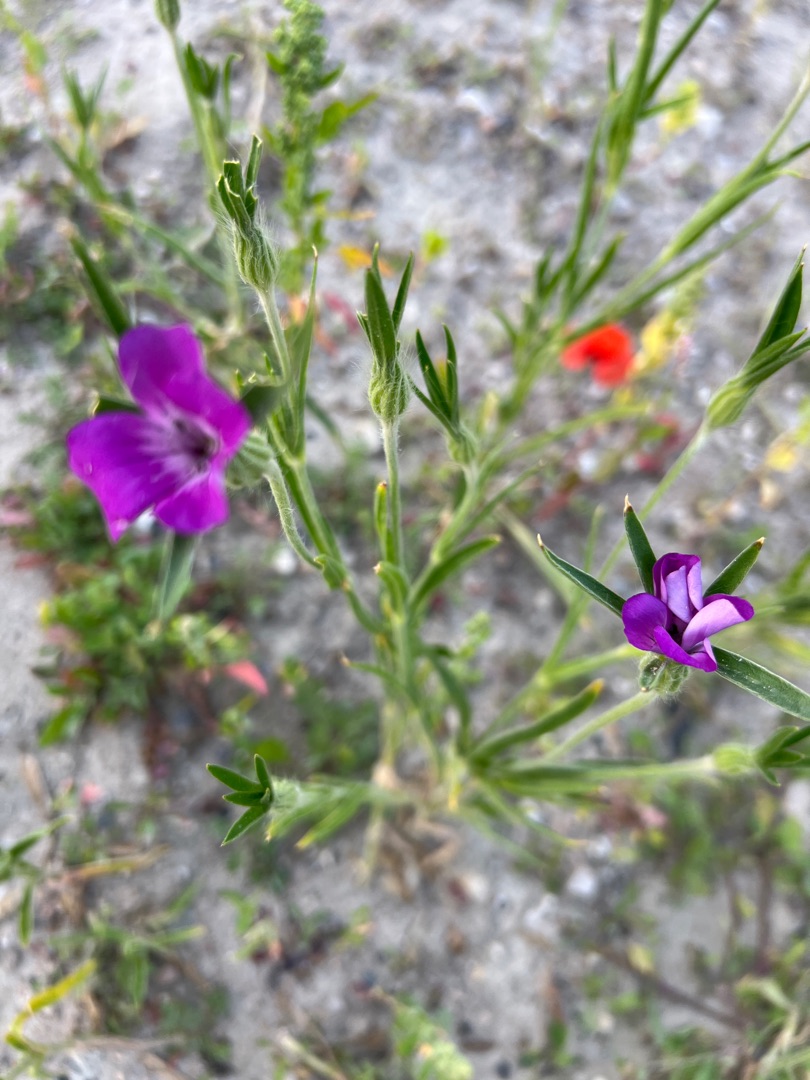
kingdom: Plantae
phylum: Tracheophyta
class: Magnoliopsida
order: Caryophyllales
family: Caryophyllaceae
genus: Agrostemma
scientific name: Agrostemma githago
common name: Klinte
